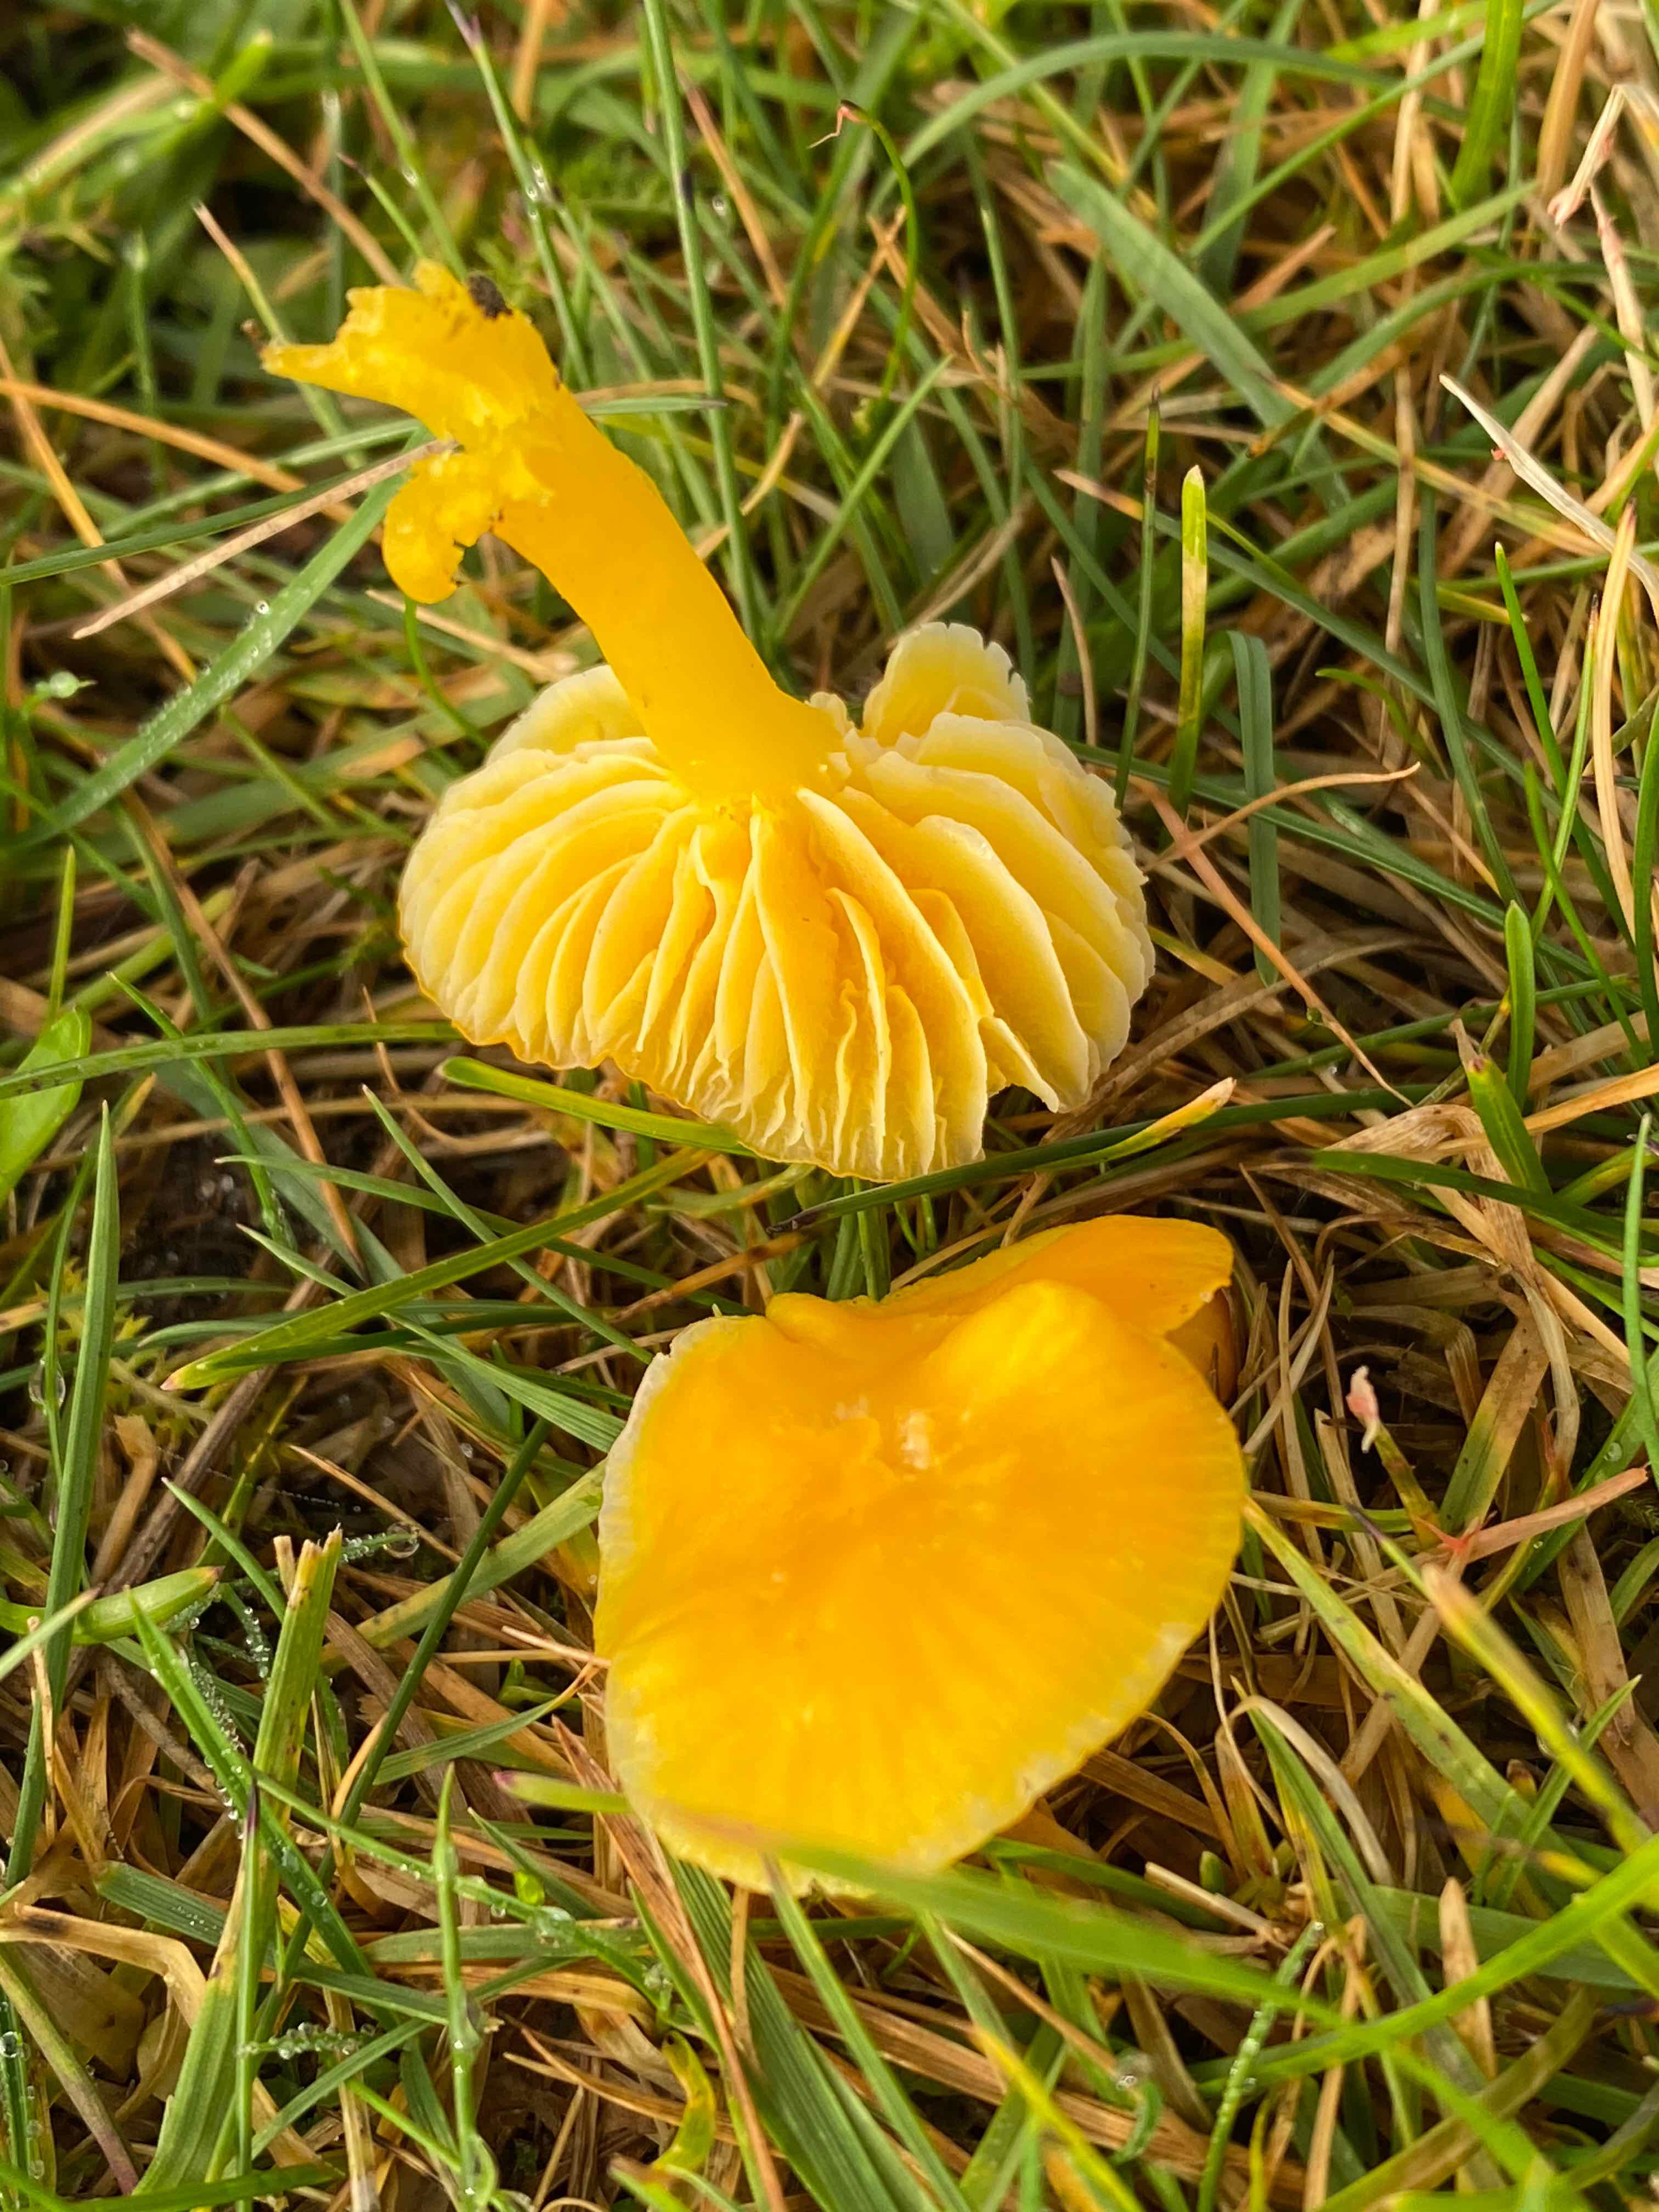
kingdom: Fungi
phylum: Basidiomycota
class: Agaricomycetes
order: Agaricales
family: Hygrophoraceae
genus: Hygrocybe
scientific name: Hygrocybe ceracea
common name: voksgul vokshat
